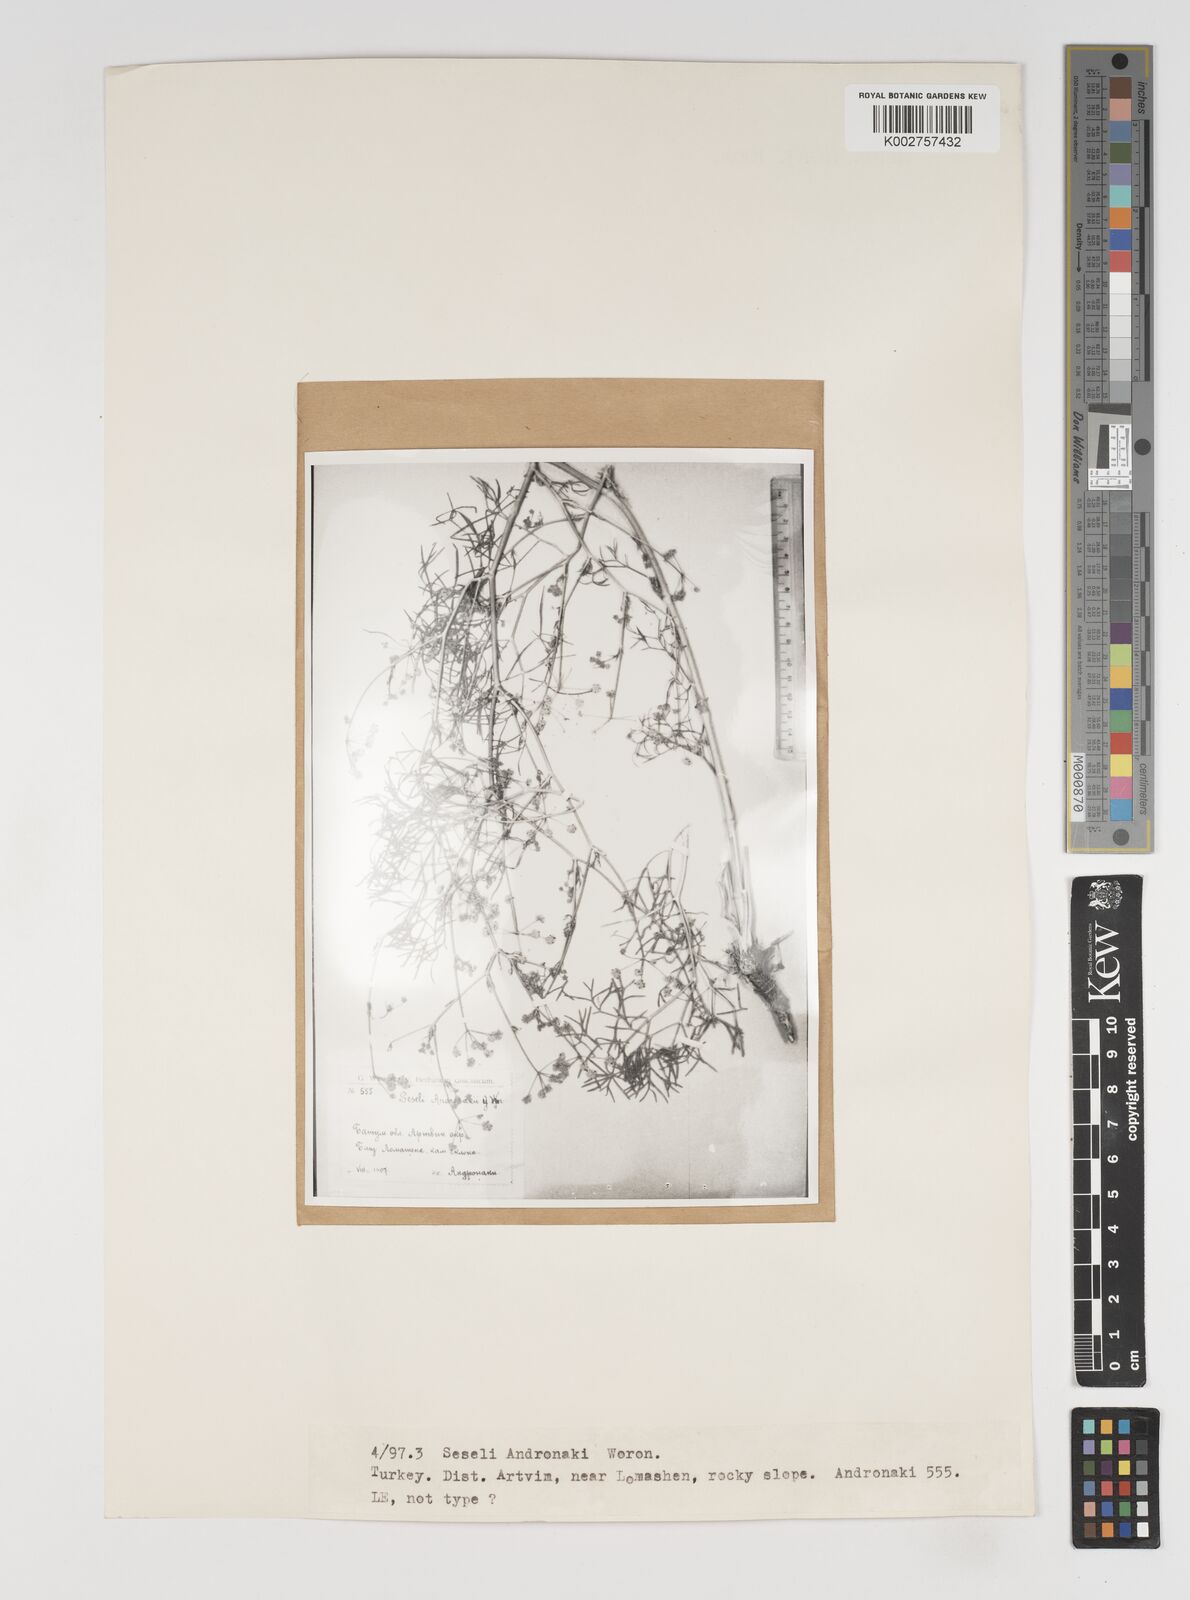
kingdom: Plantae
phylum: Tracheophyta
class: Magnoliopsida
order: Apiales
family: Apiaceae
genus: Seseli
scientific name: Seseli andronakii
